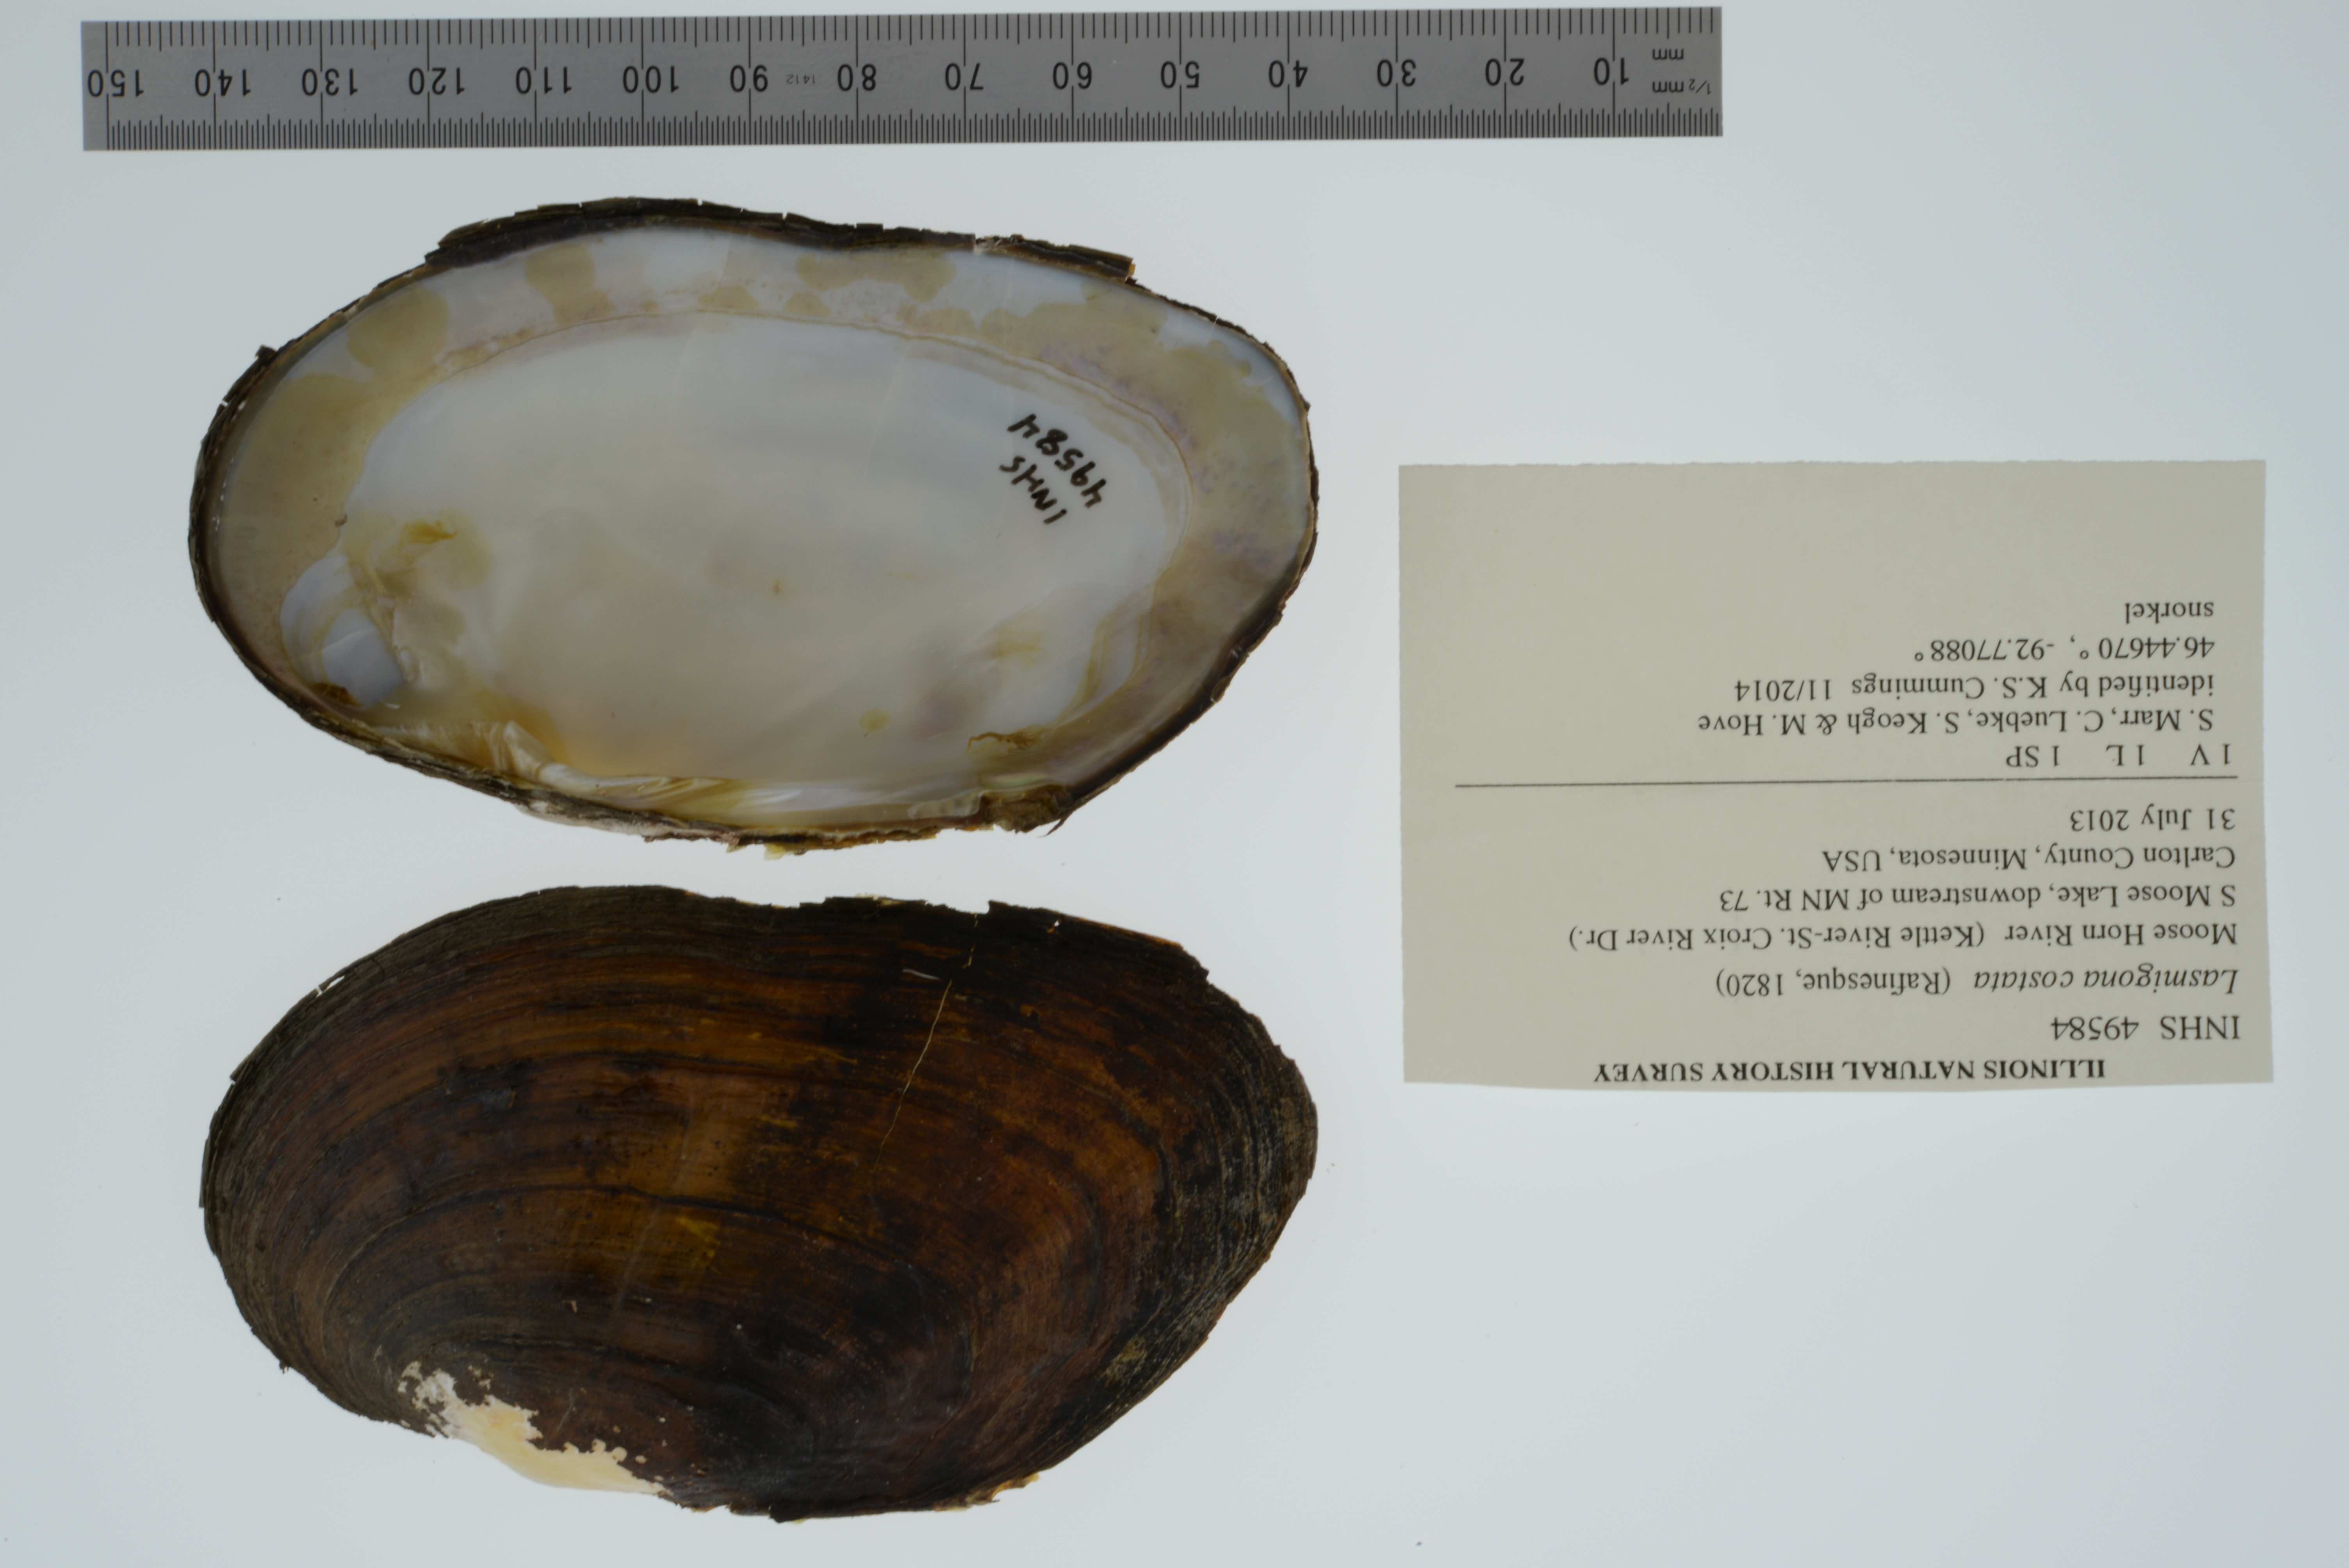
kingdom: Animalia
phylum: Mollusca
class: Bivalvia
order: Unionida
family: Unionidae
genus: Lasmigona
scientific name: Lasmigona costata
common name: Flutedshell
